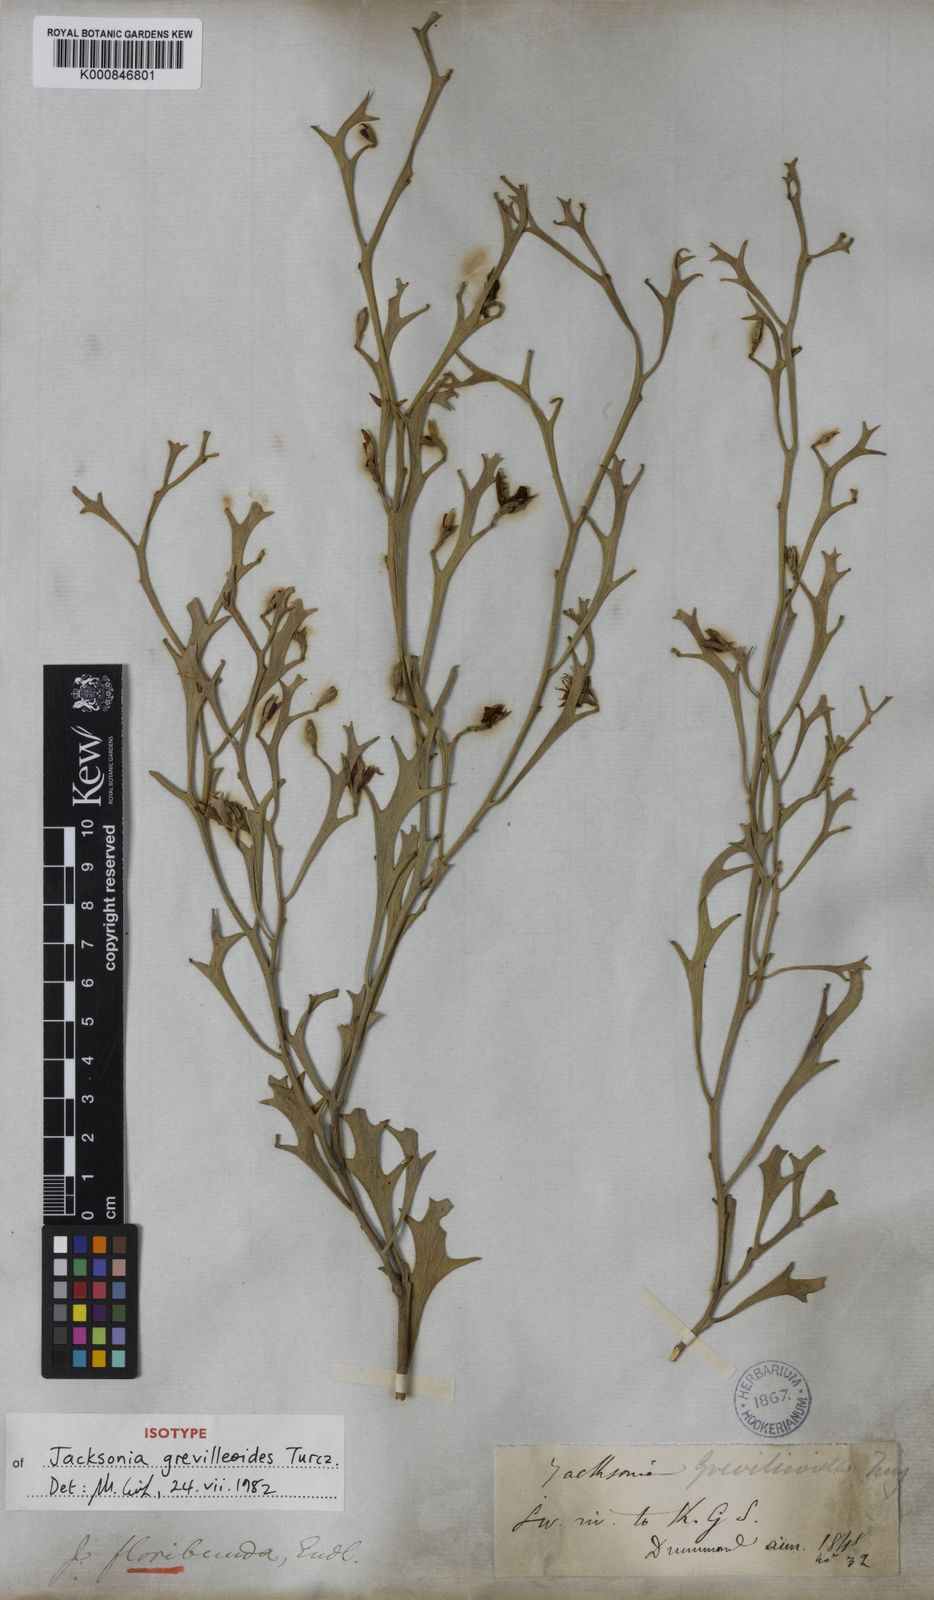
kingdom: Plantae
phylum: Tracheophyta
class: Magnoliopsida
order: Fabales
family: Fabaceae
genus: Jacksonia
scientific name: Jacksonia grevilleoides
